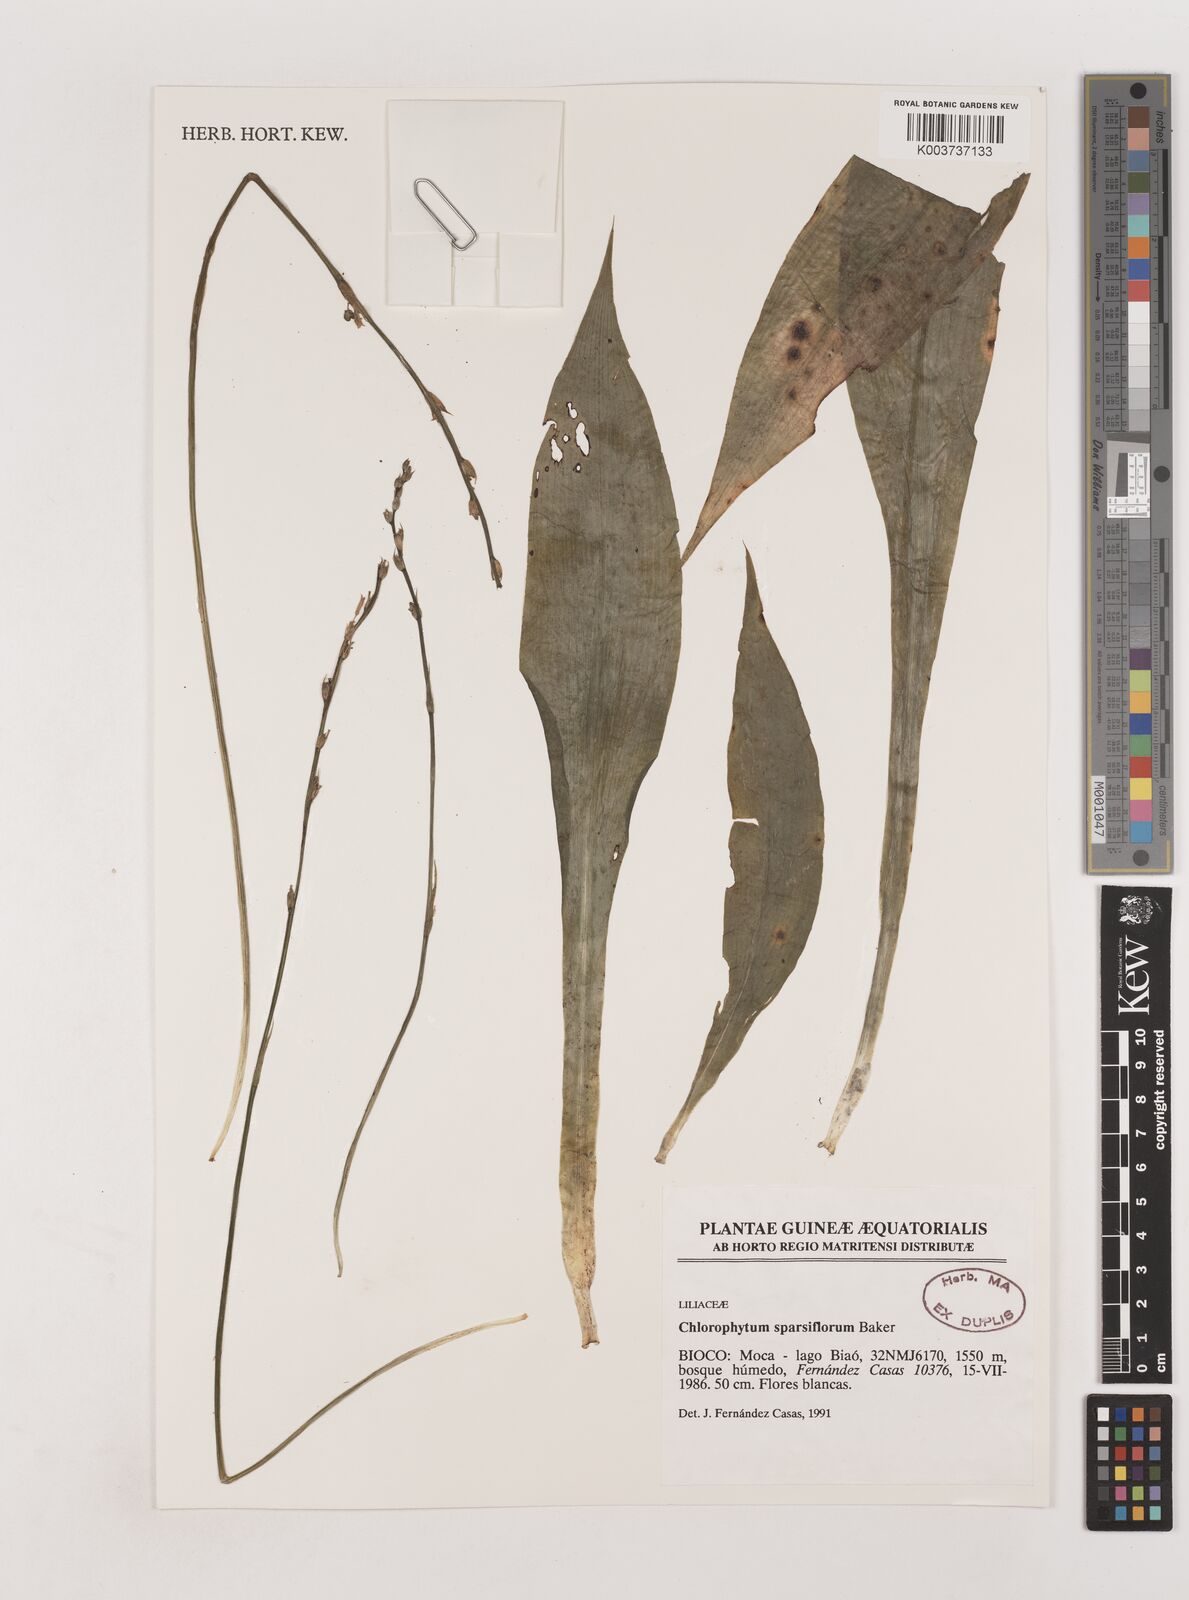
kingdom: Plantae
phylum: Tracheophyta
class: Liliopsida
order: Asparagales
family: Asparagaceae
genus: Chlorophytum
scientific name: Chlorophytum sparsiflorum
